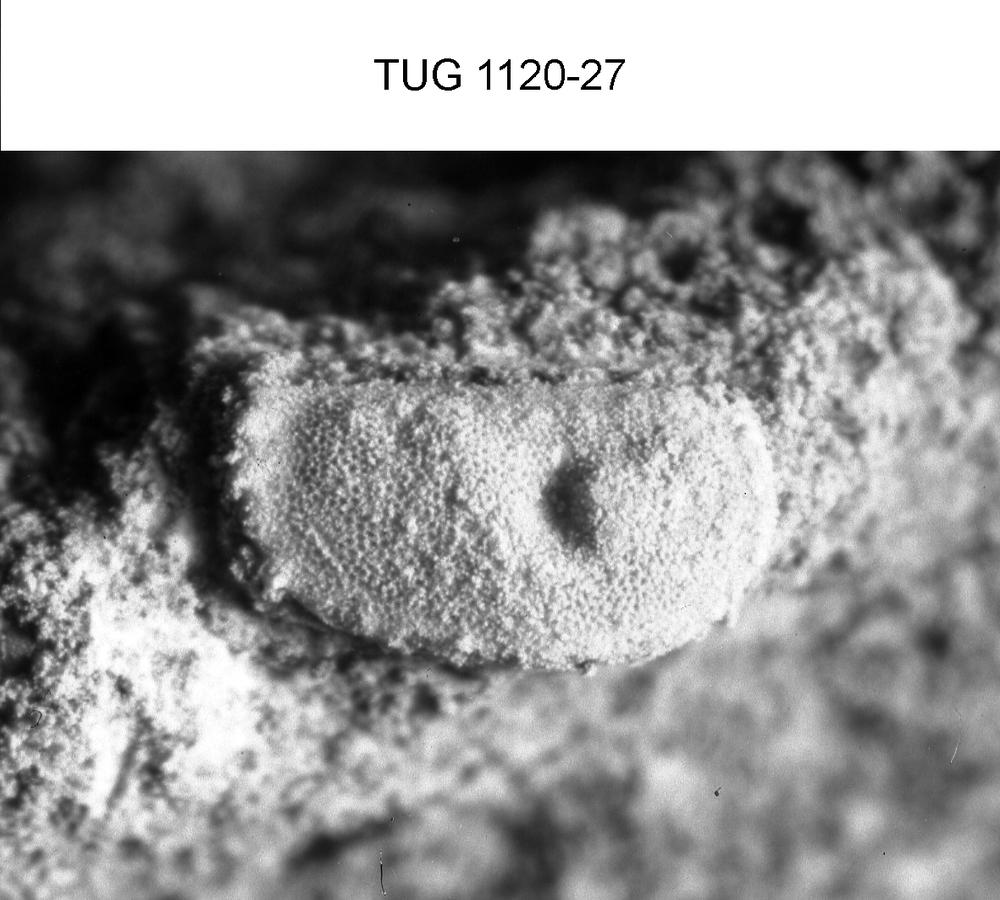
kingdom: Animalia
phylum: Arthropoda
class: Ostracoda
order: Palaeocopida
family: Tetradellidae
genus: Ctenobolbina
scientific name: Ctenobolbina
